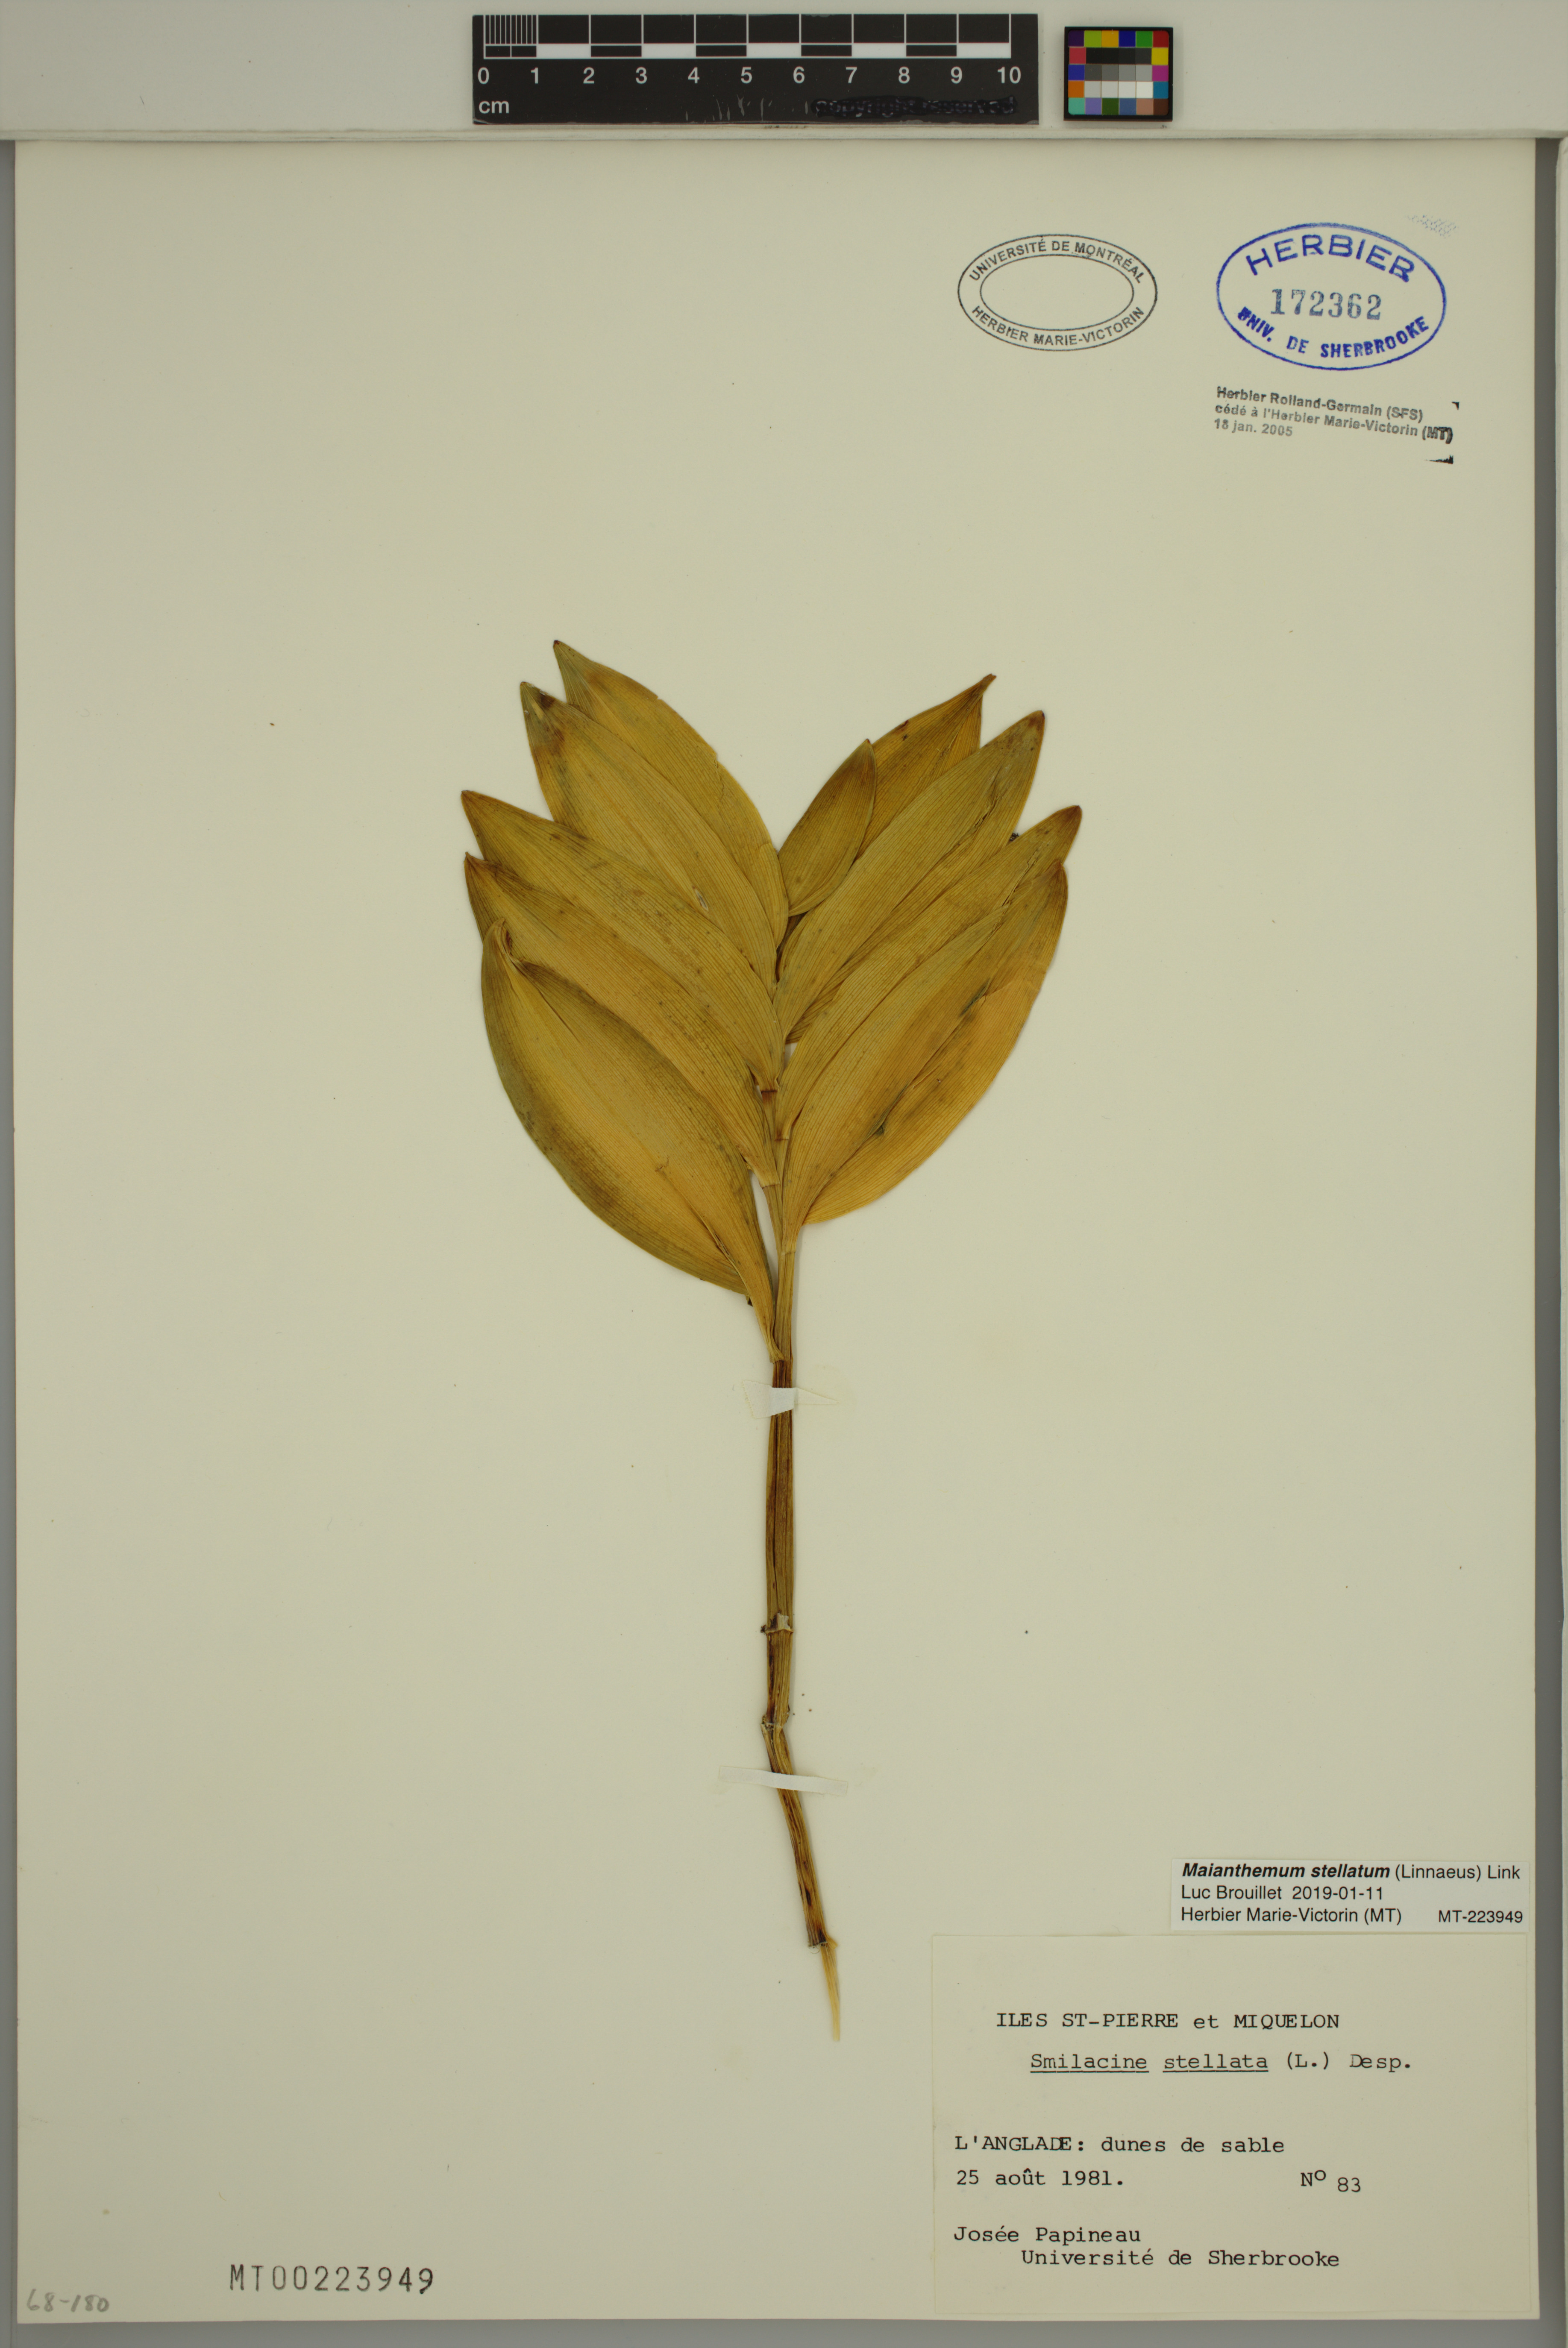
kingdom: Plantae
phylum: Tracheophyta
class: Liliopsida
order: Asparagales
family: Asparagaceae
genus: Maianthemum
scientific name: Maianthemum stellatum
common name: Little false solomon's seal
